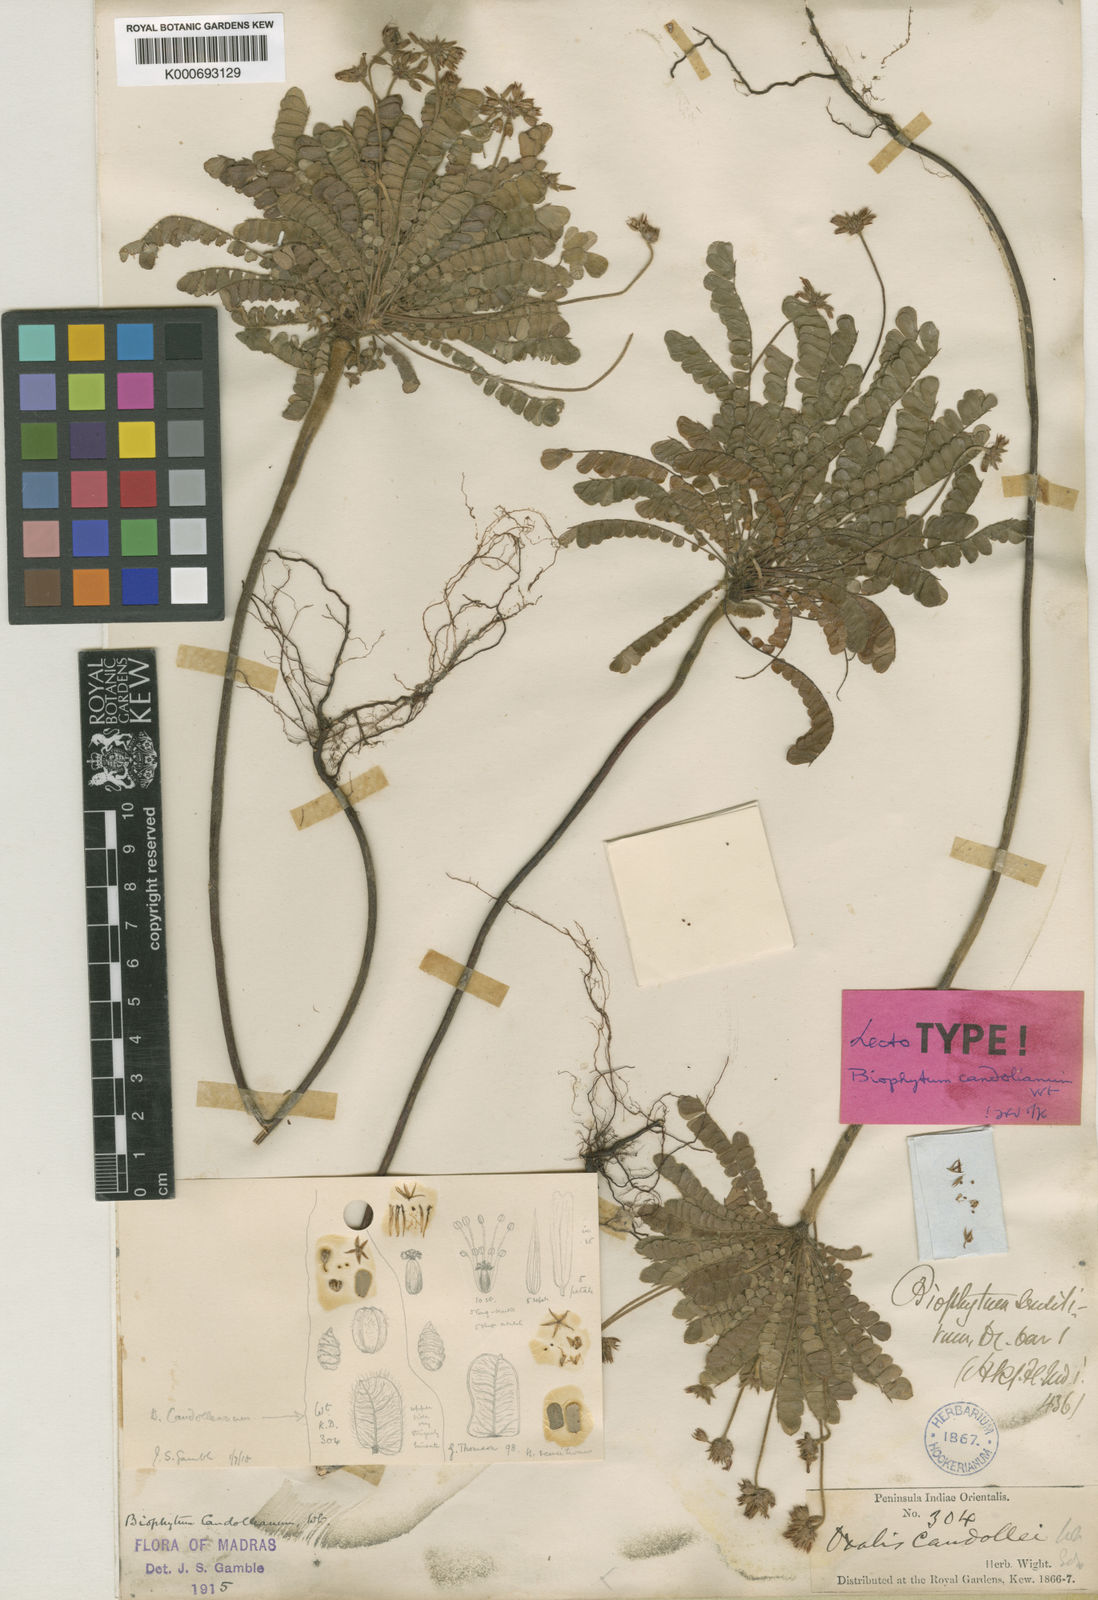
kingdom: Plantae
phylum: Tracheophyta
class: Magnoliopsida
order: Oxalidales
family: Oxalidaceae
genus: Biophytum
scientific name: Biophytum sensitivum
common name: Lifeplant
